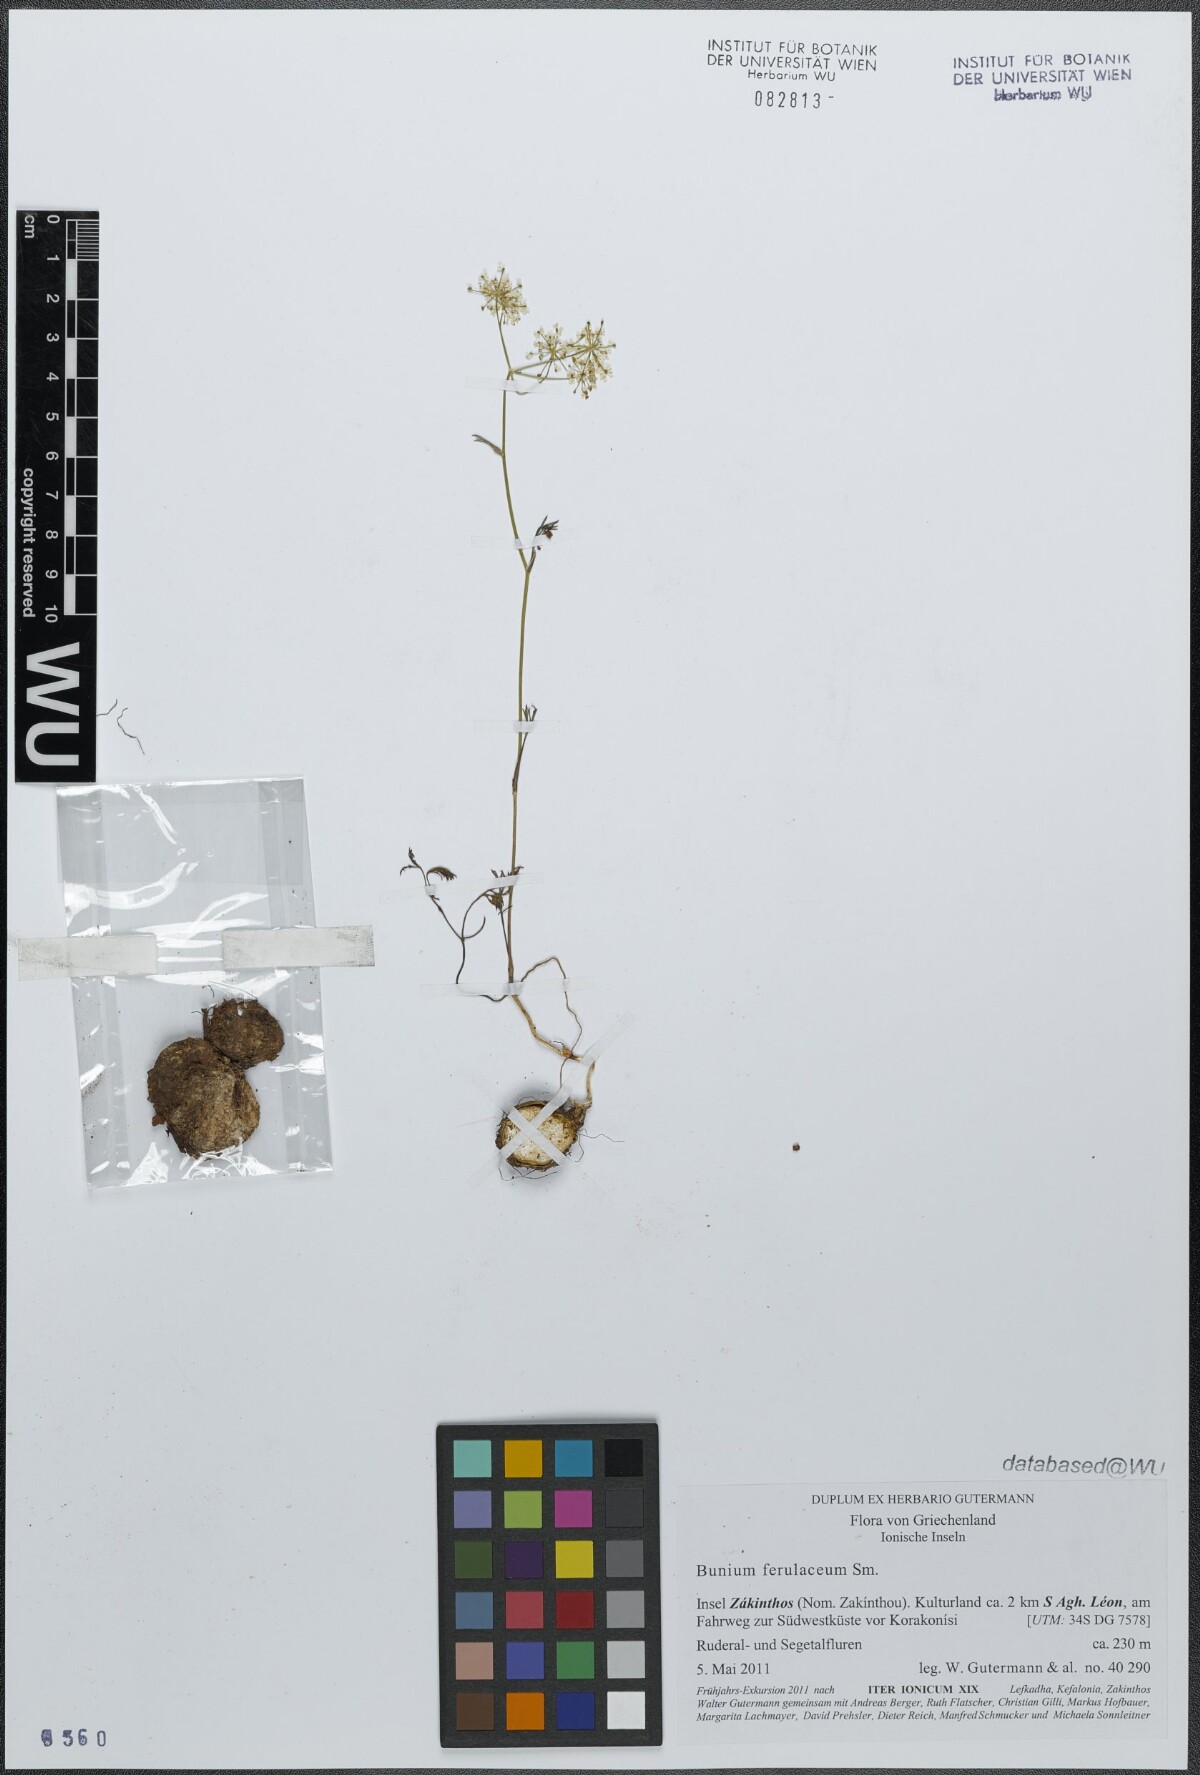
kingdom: Plantae
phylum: Tracheophyta
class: Magnoliopsida
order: Apiales
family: Apiaceae
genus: Bunium
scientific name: Bunium ferulaceum
